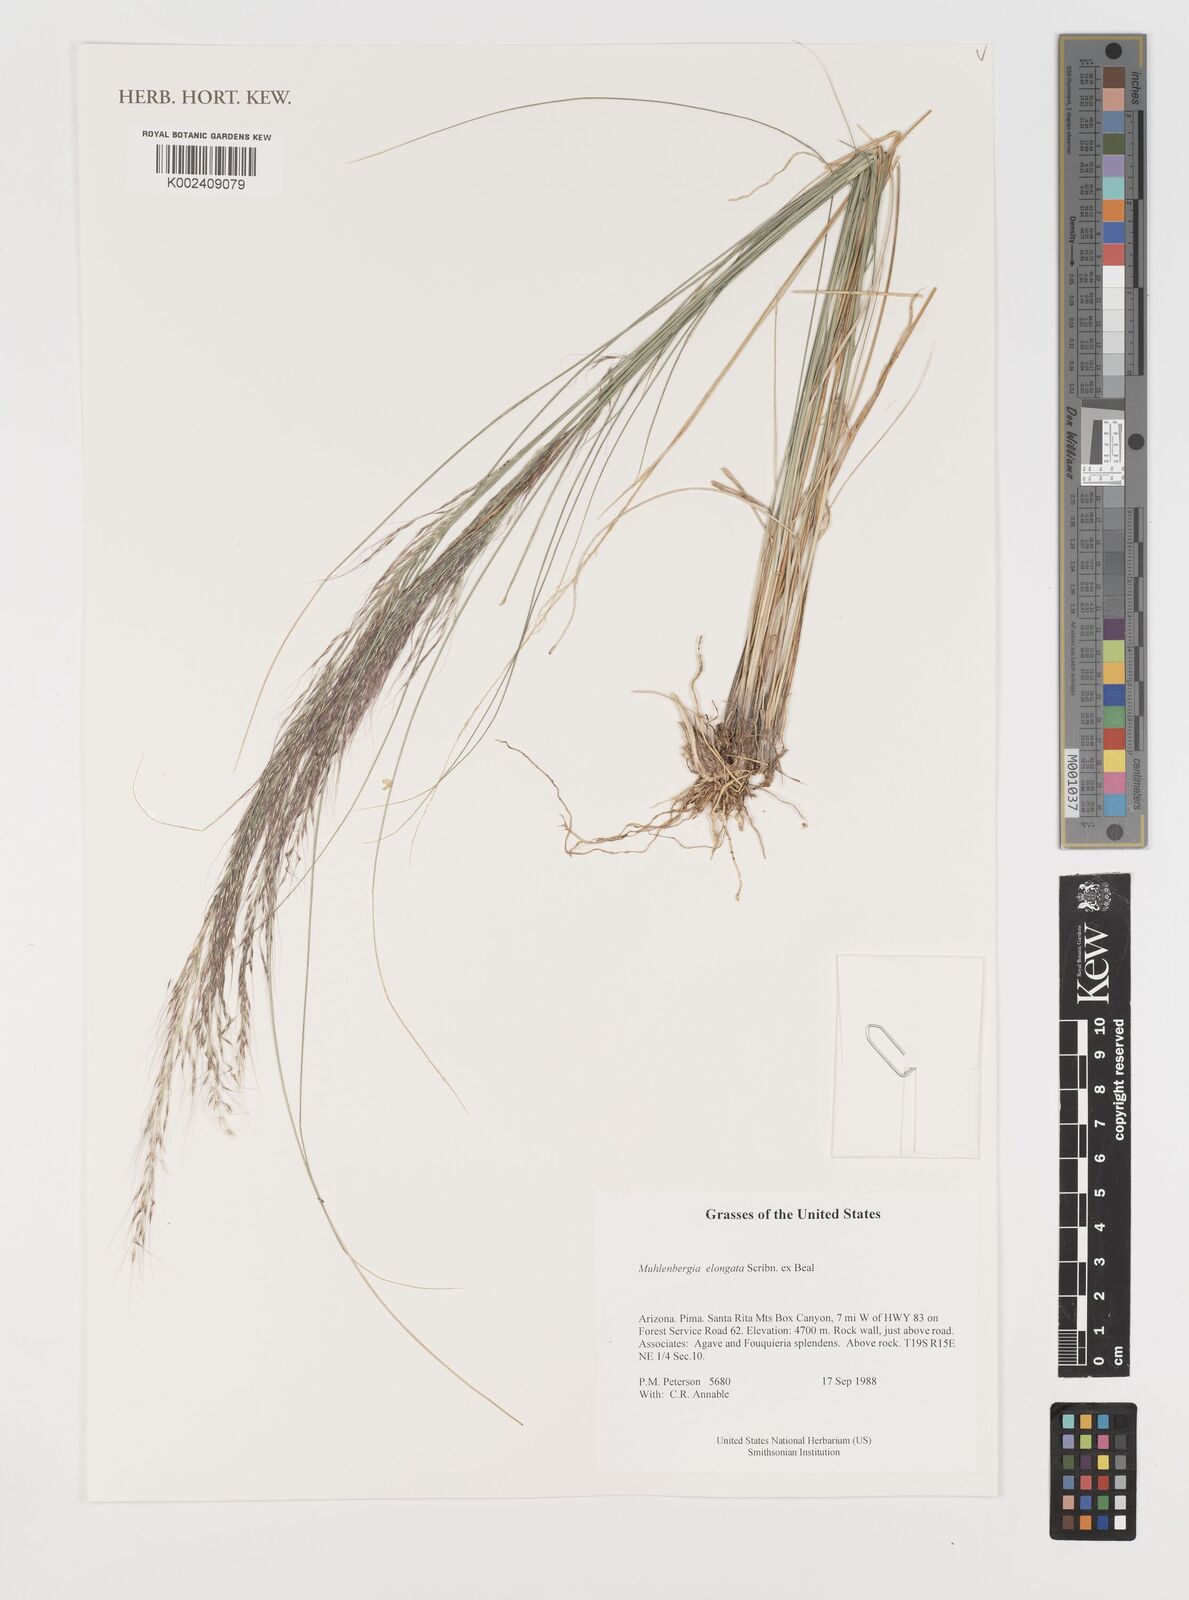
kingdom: Plantae
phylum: Tracheophyta
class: Liliopsida
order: Poales
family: Poaceae
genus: Muhlenbergia
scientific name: Muhlenbergia elongata
